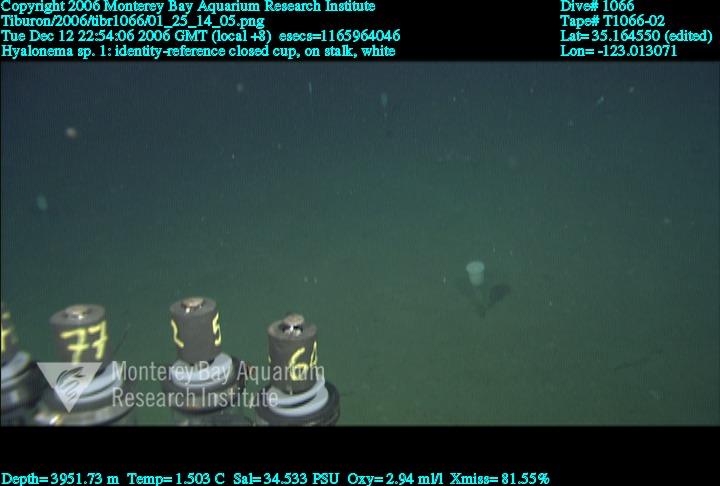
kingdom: Animalia
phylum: Porifera
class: Hexactinellida
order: Amphidiscosida
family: Hyalonematidae
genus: Hyalonema
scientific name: Hyalonema
